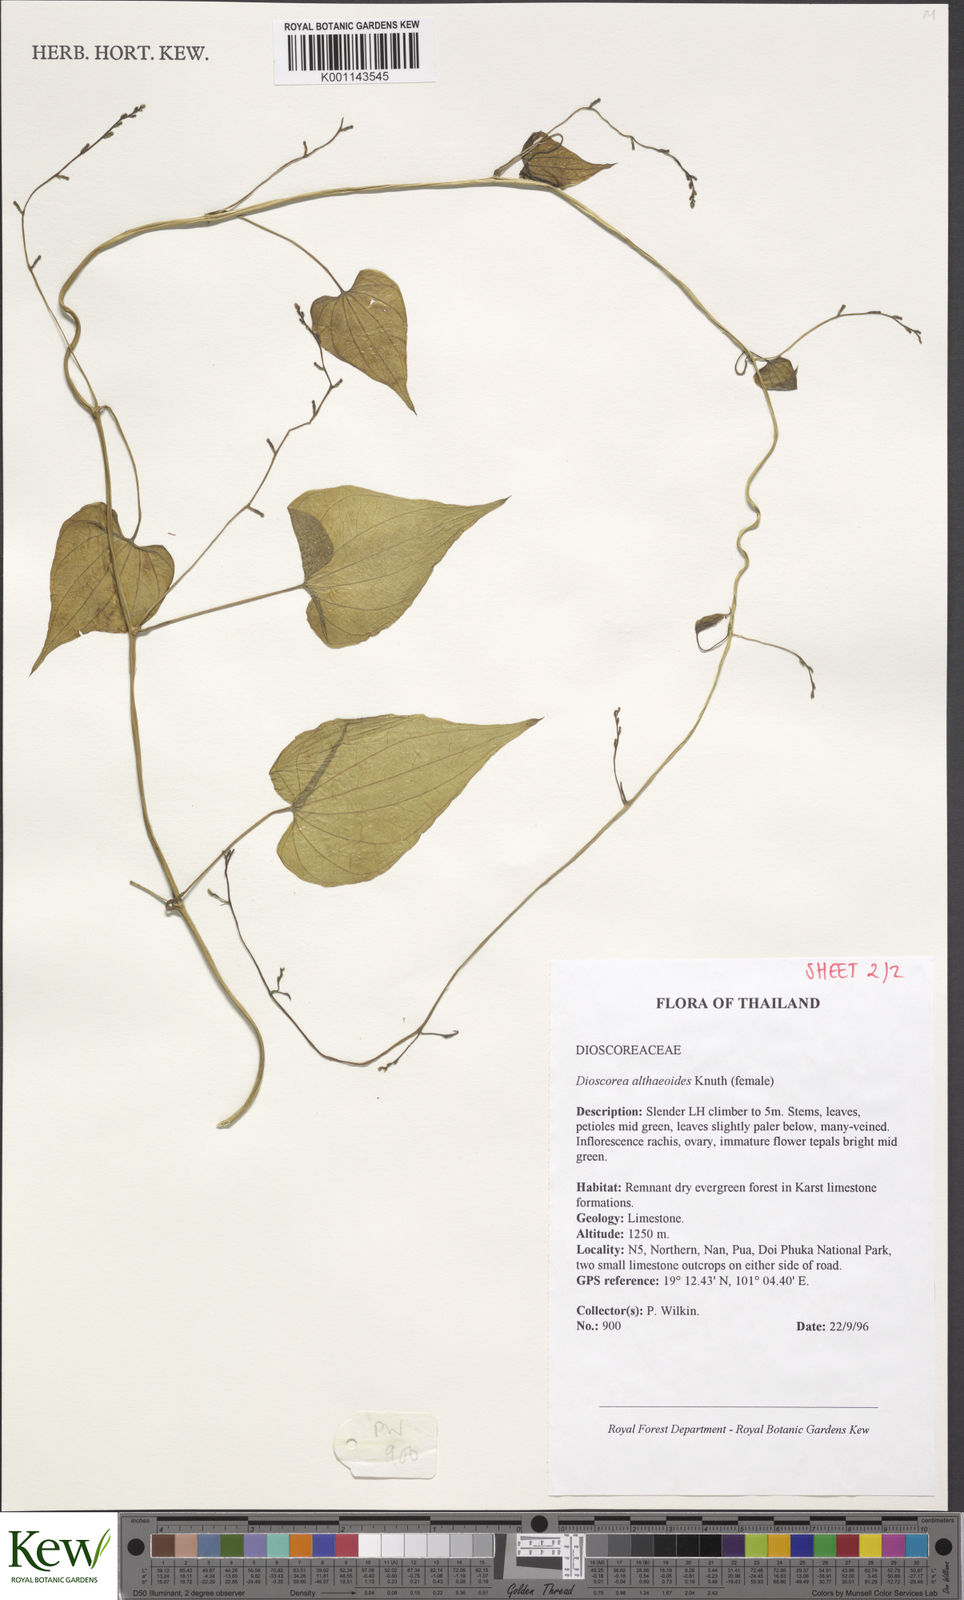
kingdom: Plantae
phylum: Tracheophyta
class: Liliopsida
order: Dioscoreales
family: Dioscoreaceae
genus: Dioscorea
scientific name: Dioscorea rockii
